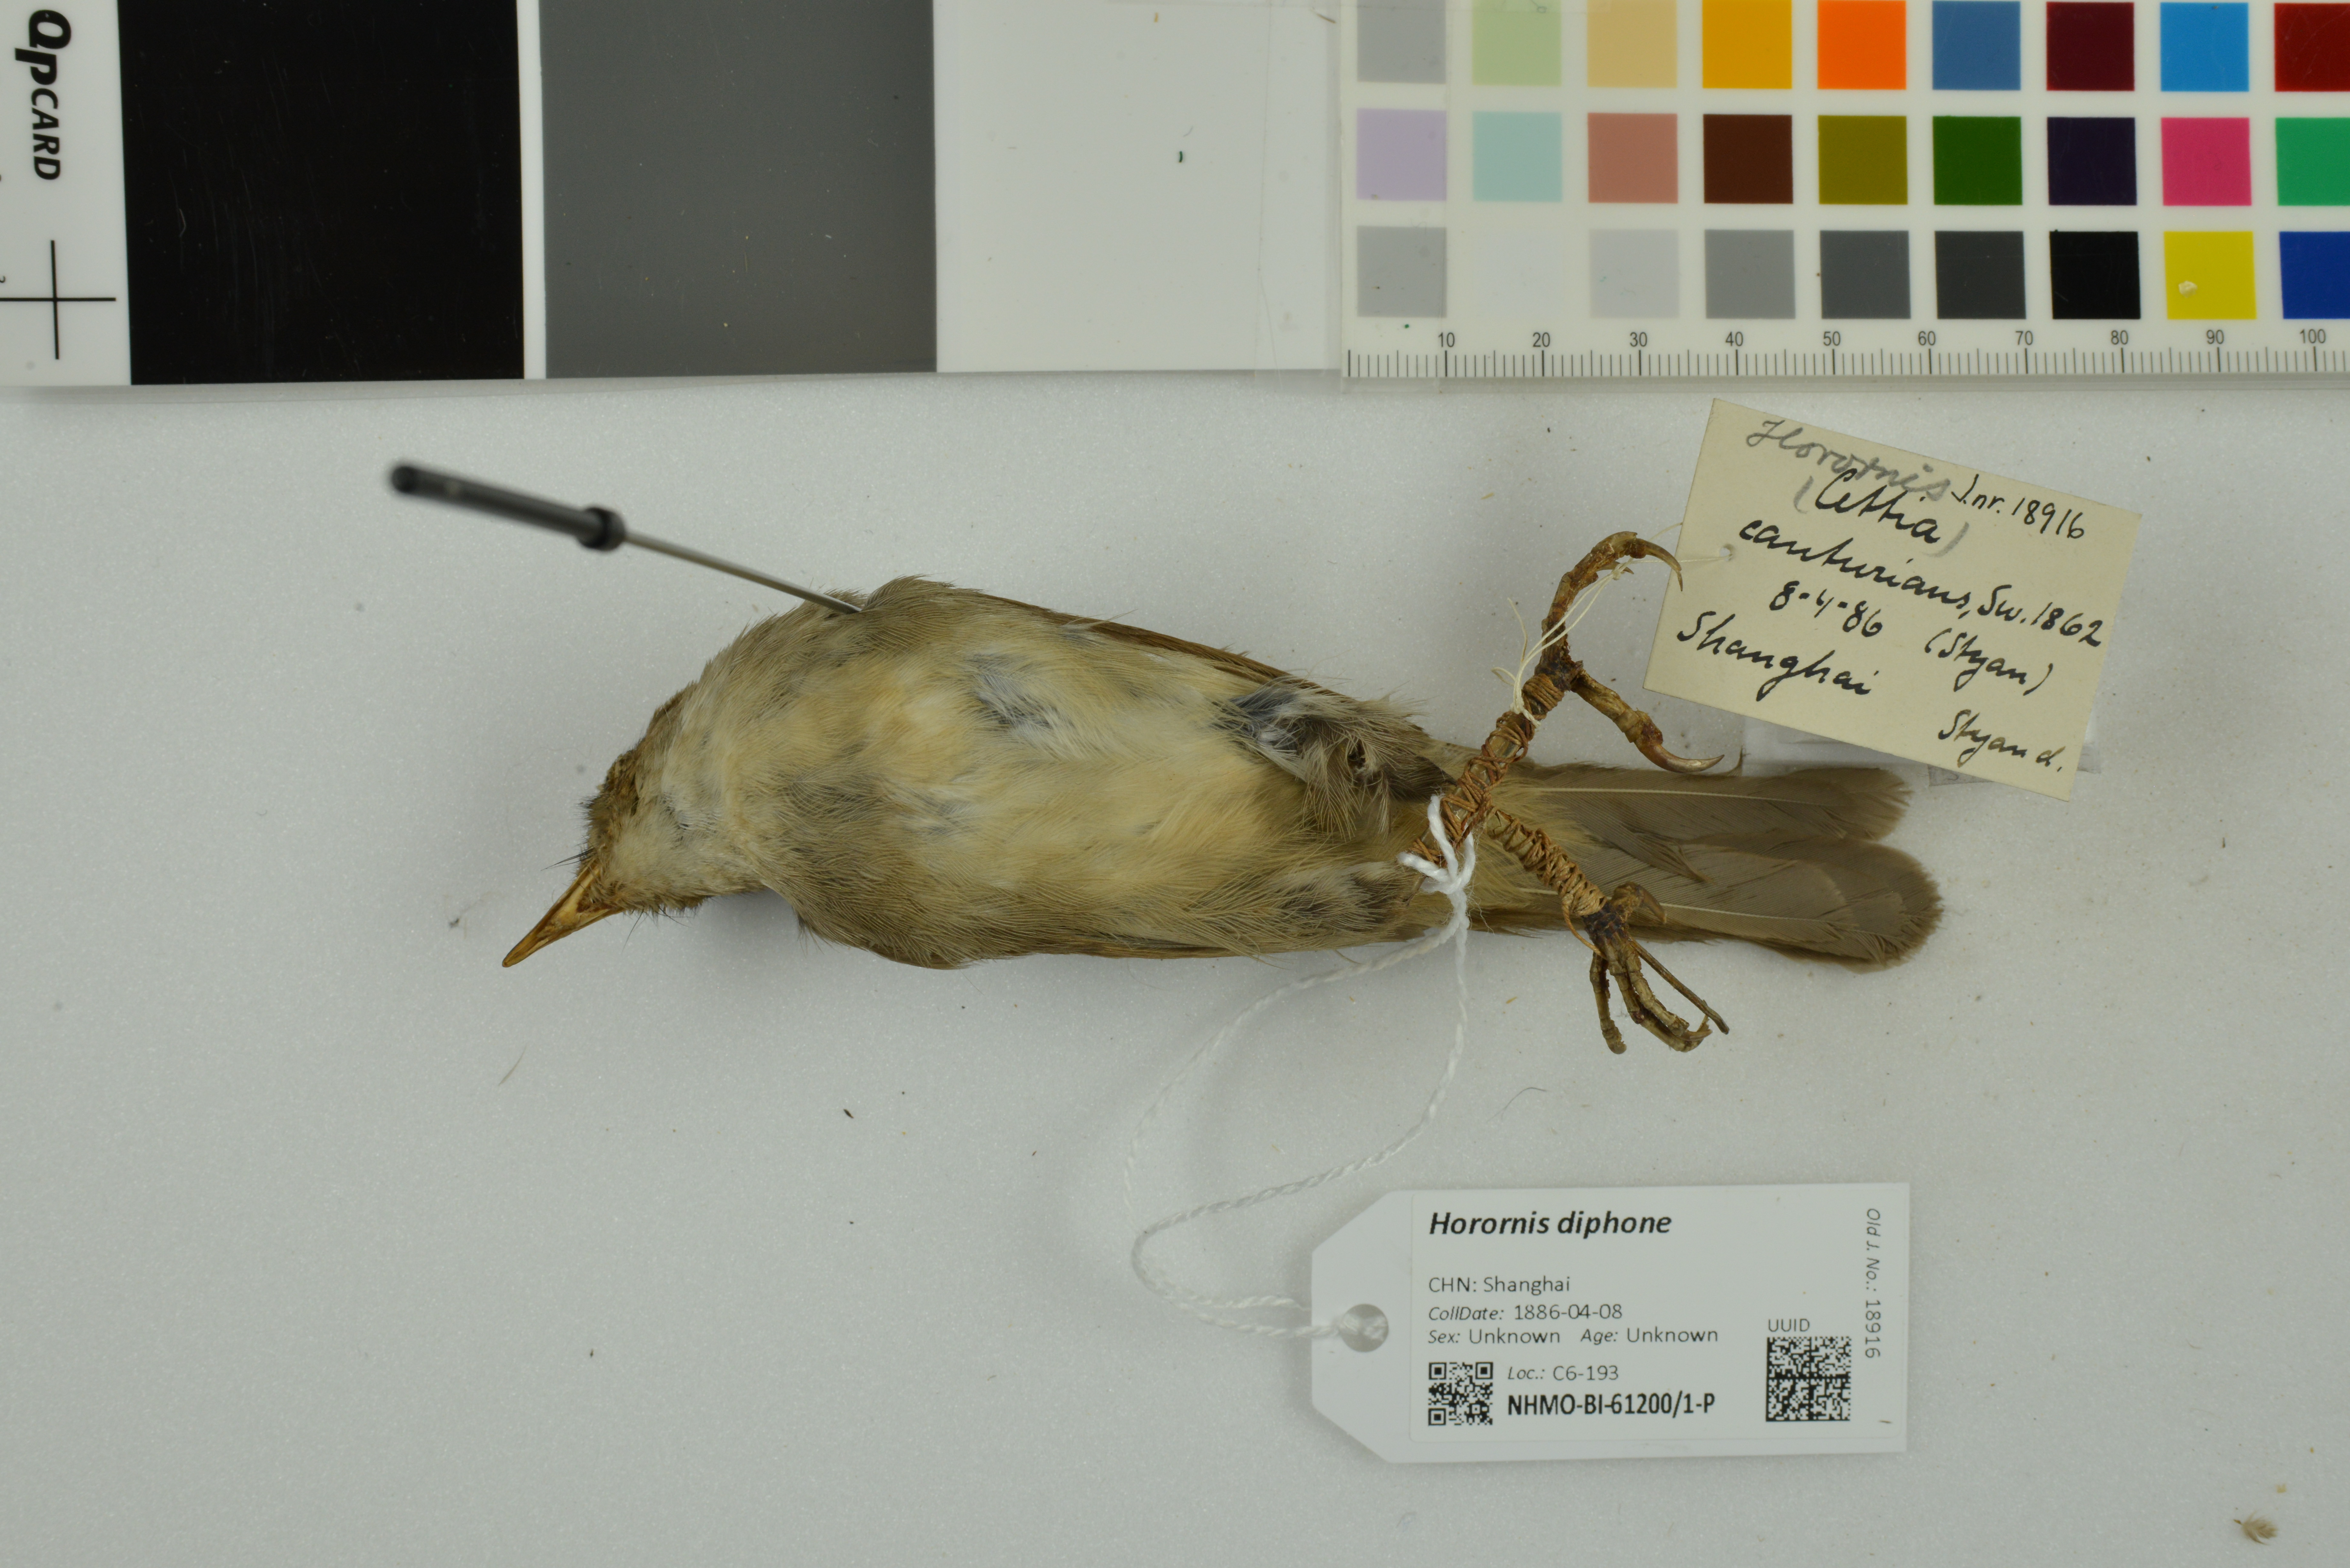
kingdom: Animalia
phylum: Chordata
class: Aves
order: Passeriformes
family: Cettiidae
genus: Horornis
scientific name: Horornis diphone
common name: Japanese bush warbler
